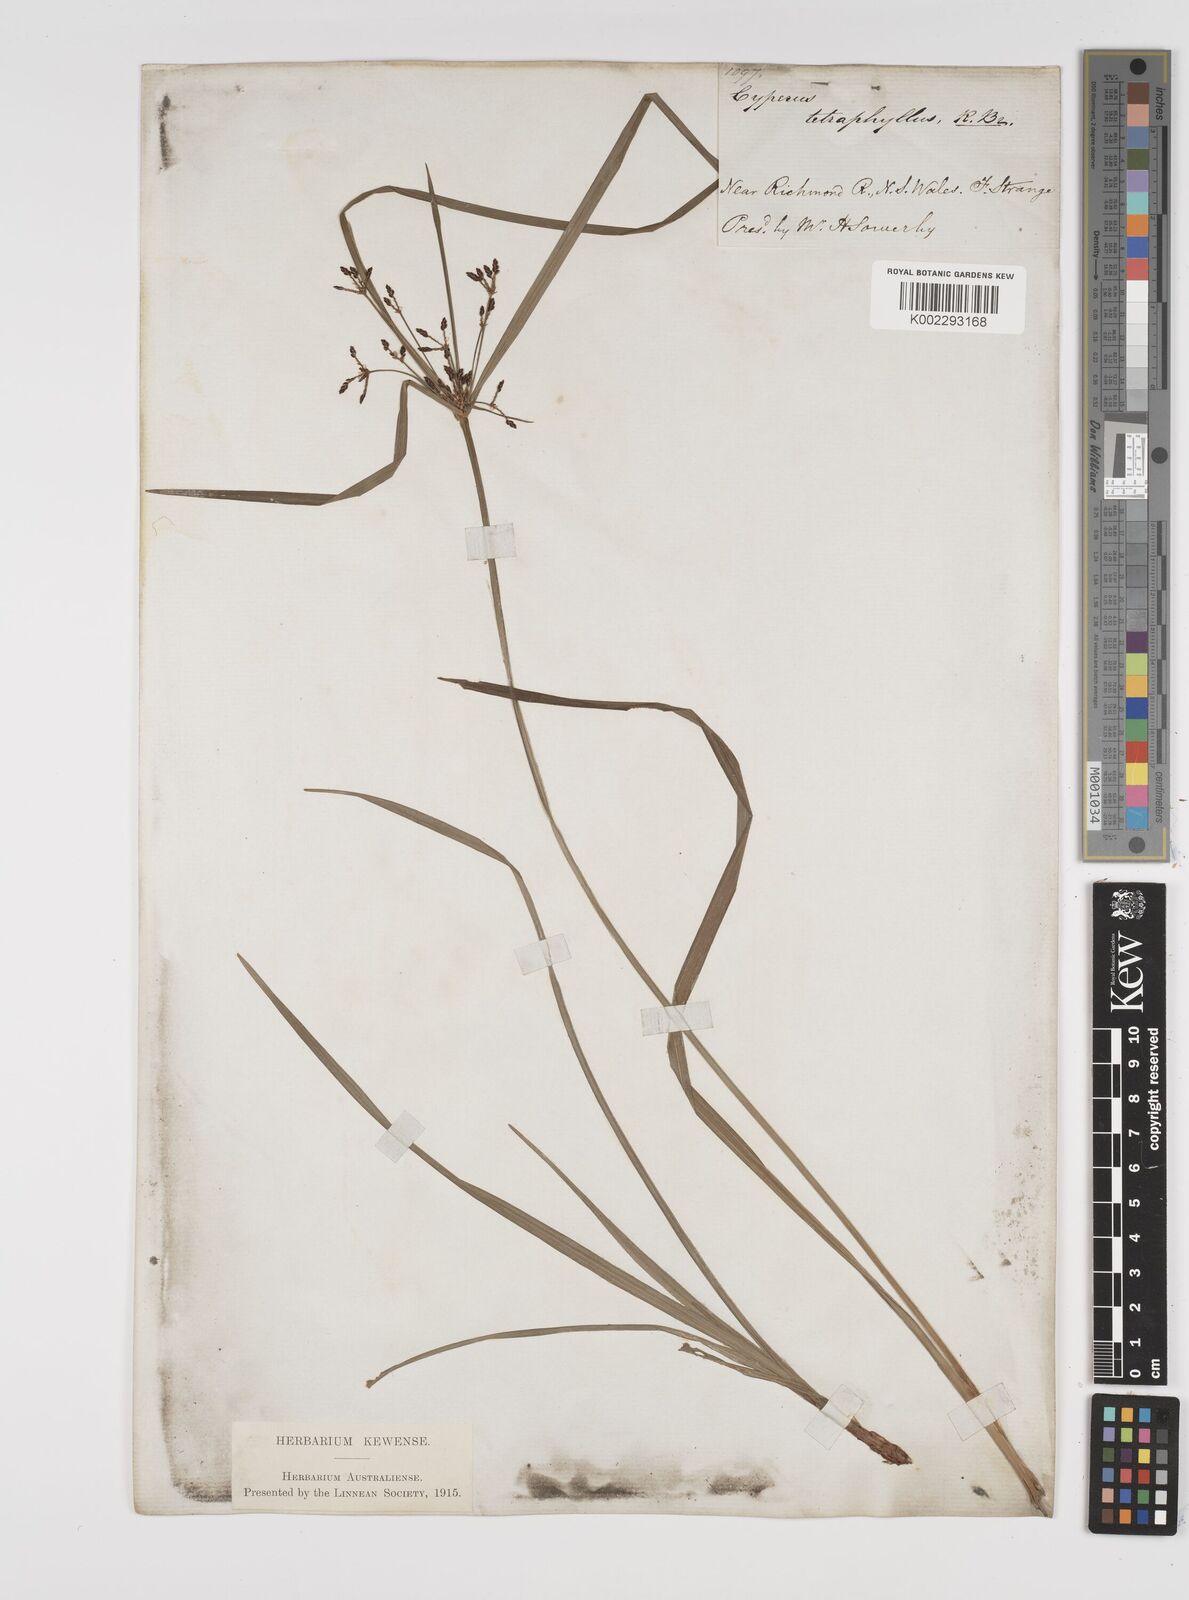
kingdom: Plantae
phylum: Tracheophyta
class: Liliopsida
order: Poales
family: Cyperaceae
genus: Cyperus
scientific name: Cyperus tetraphyllus
